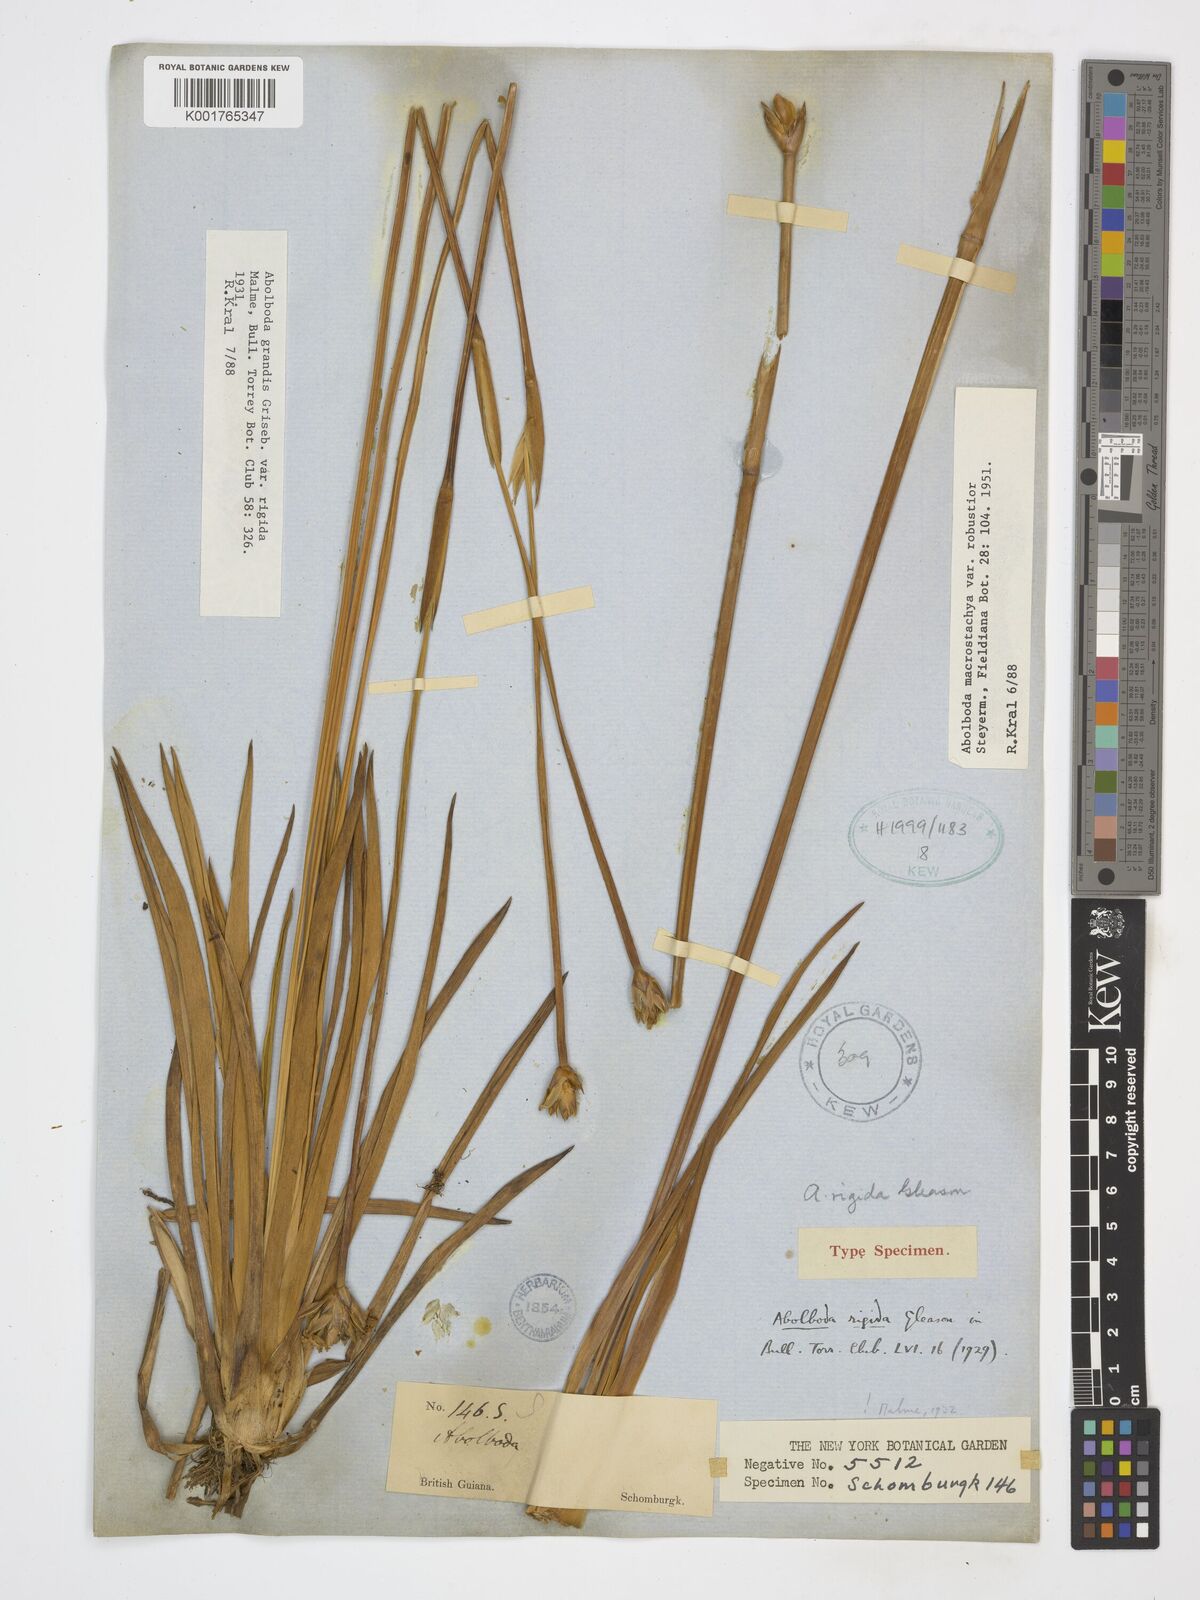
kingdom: Plantae
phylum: Tracheophyta
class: Liliopsida
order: Poales
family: Xyridaceae
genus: Abolboda
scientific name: Abolboda macrostachya
